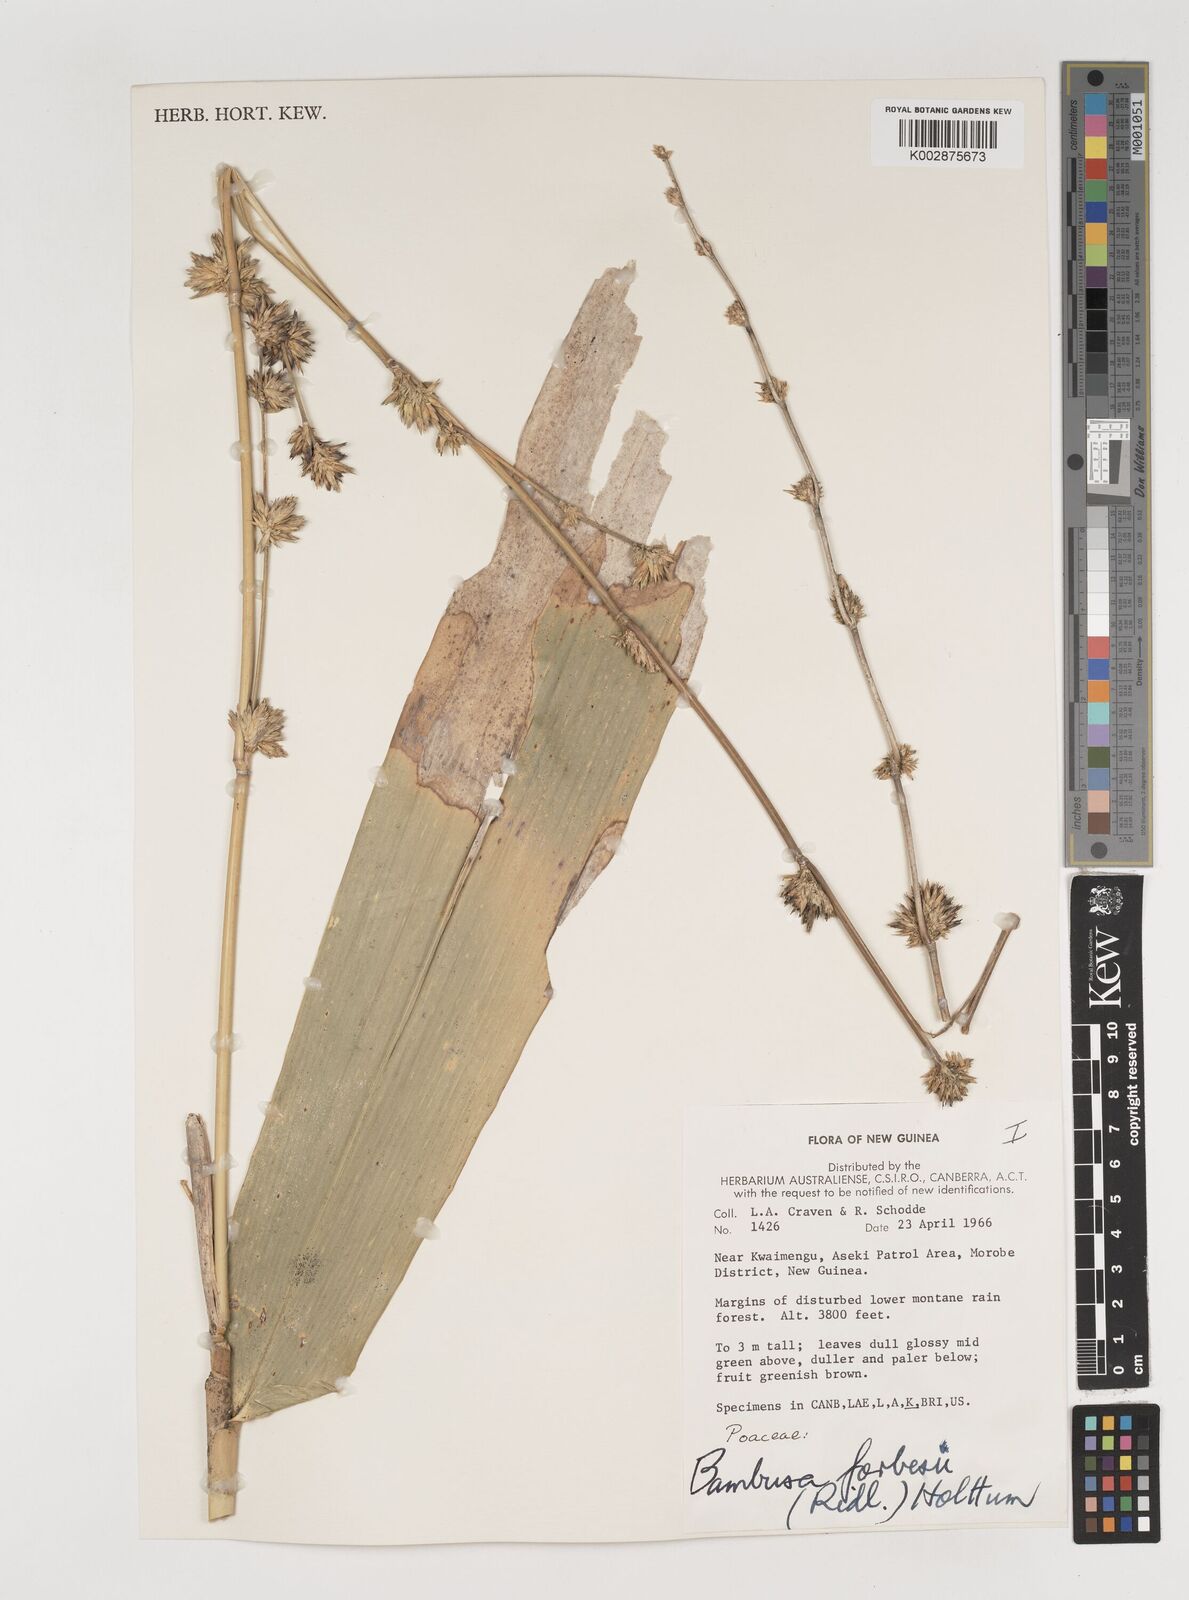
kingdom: Plantae
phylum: Tracheophyta
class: Liliopsida
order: Poales
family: Poaceae
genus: Neololeba
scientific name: Neololeba
